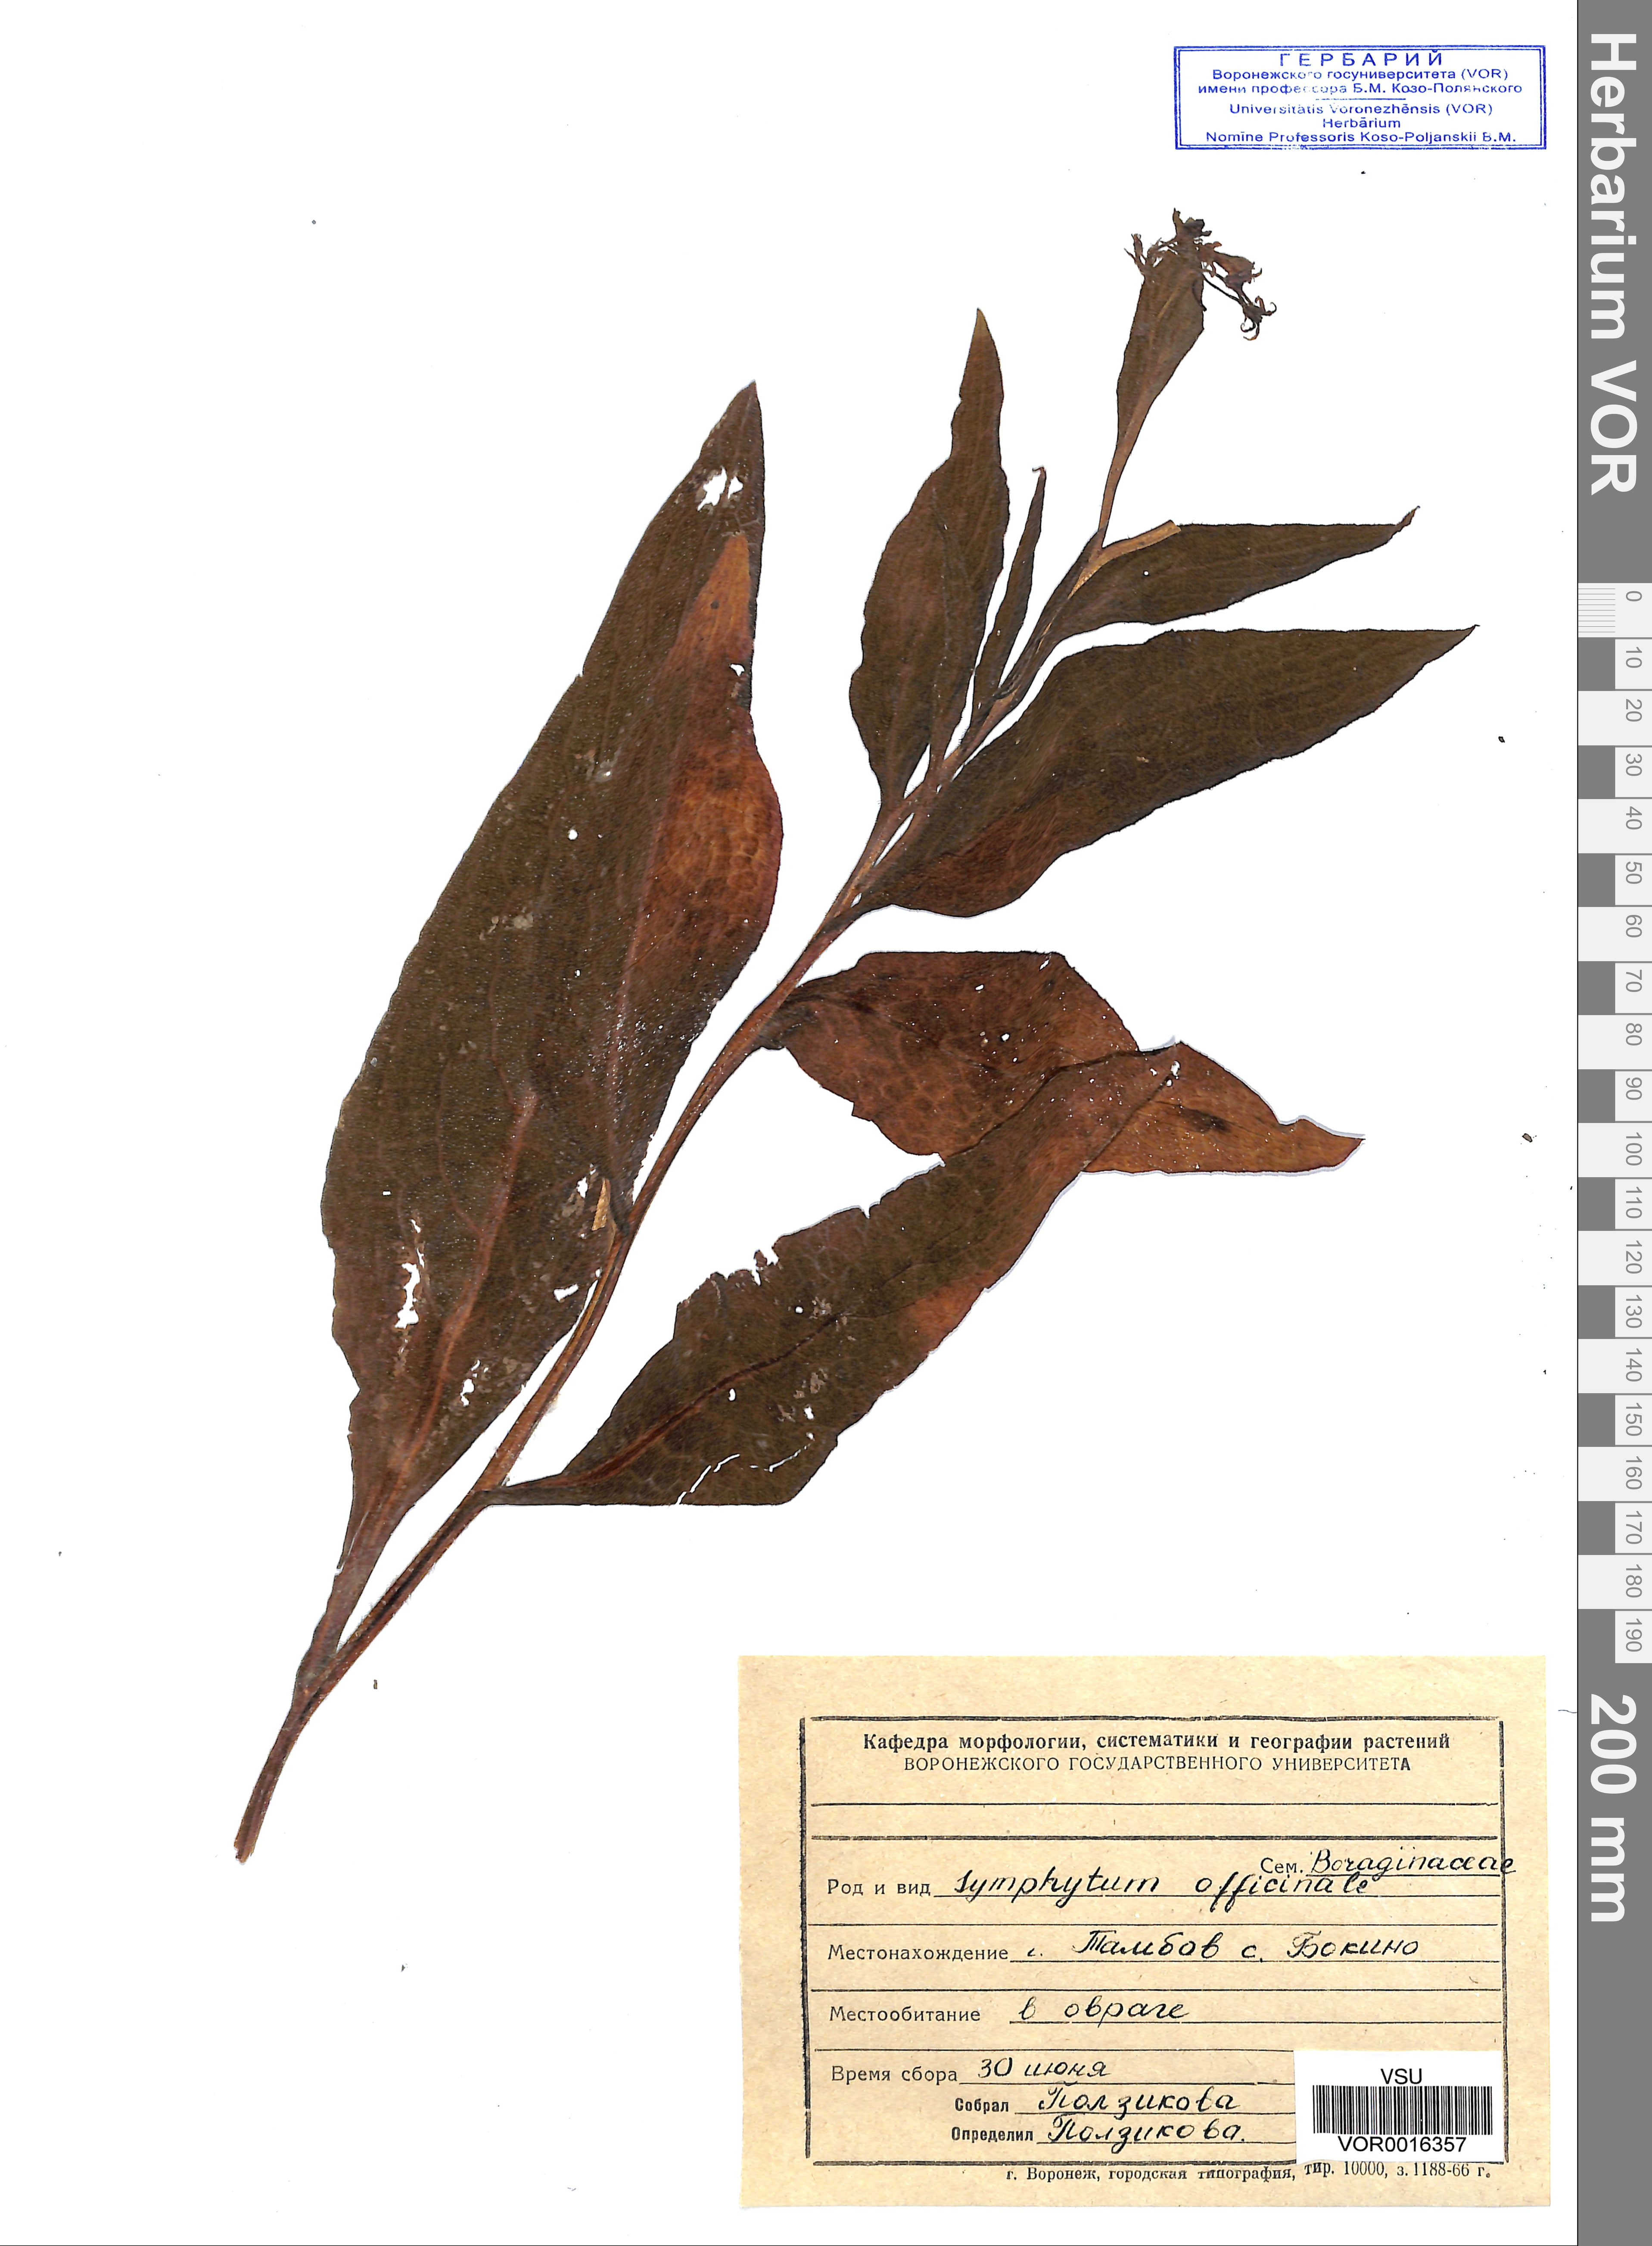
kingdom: Plantae
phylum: Tracheophyta
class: Magnoliopsida
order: Boraginales
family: Boraginaceae
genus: Symphytum
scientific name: Symphytum officinale
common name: Common comfrey
